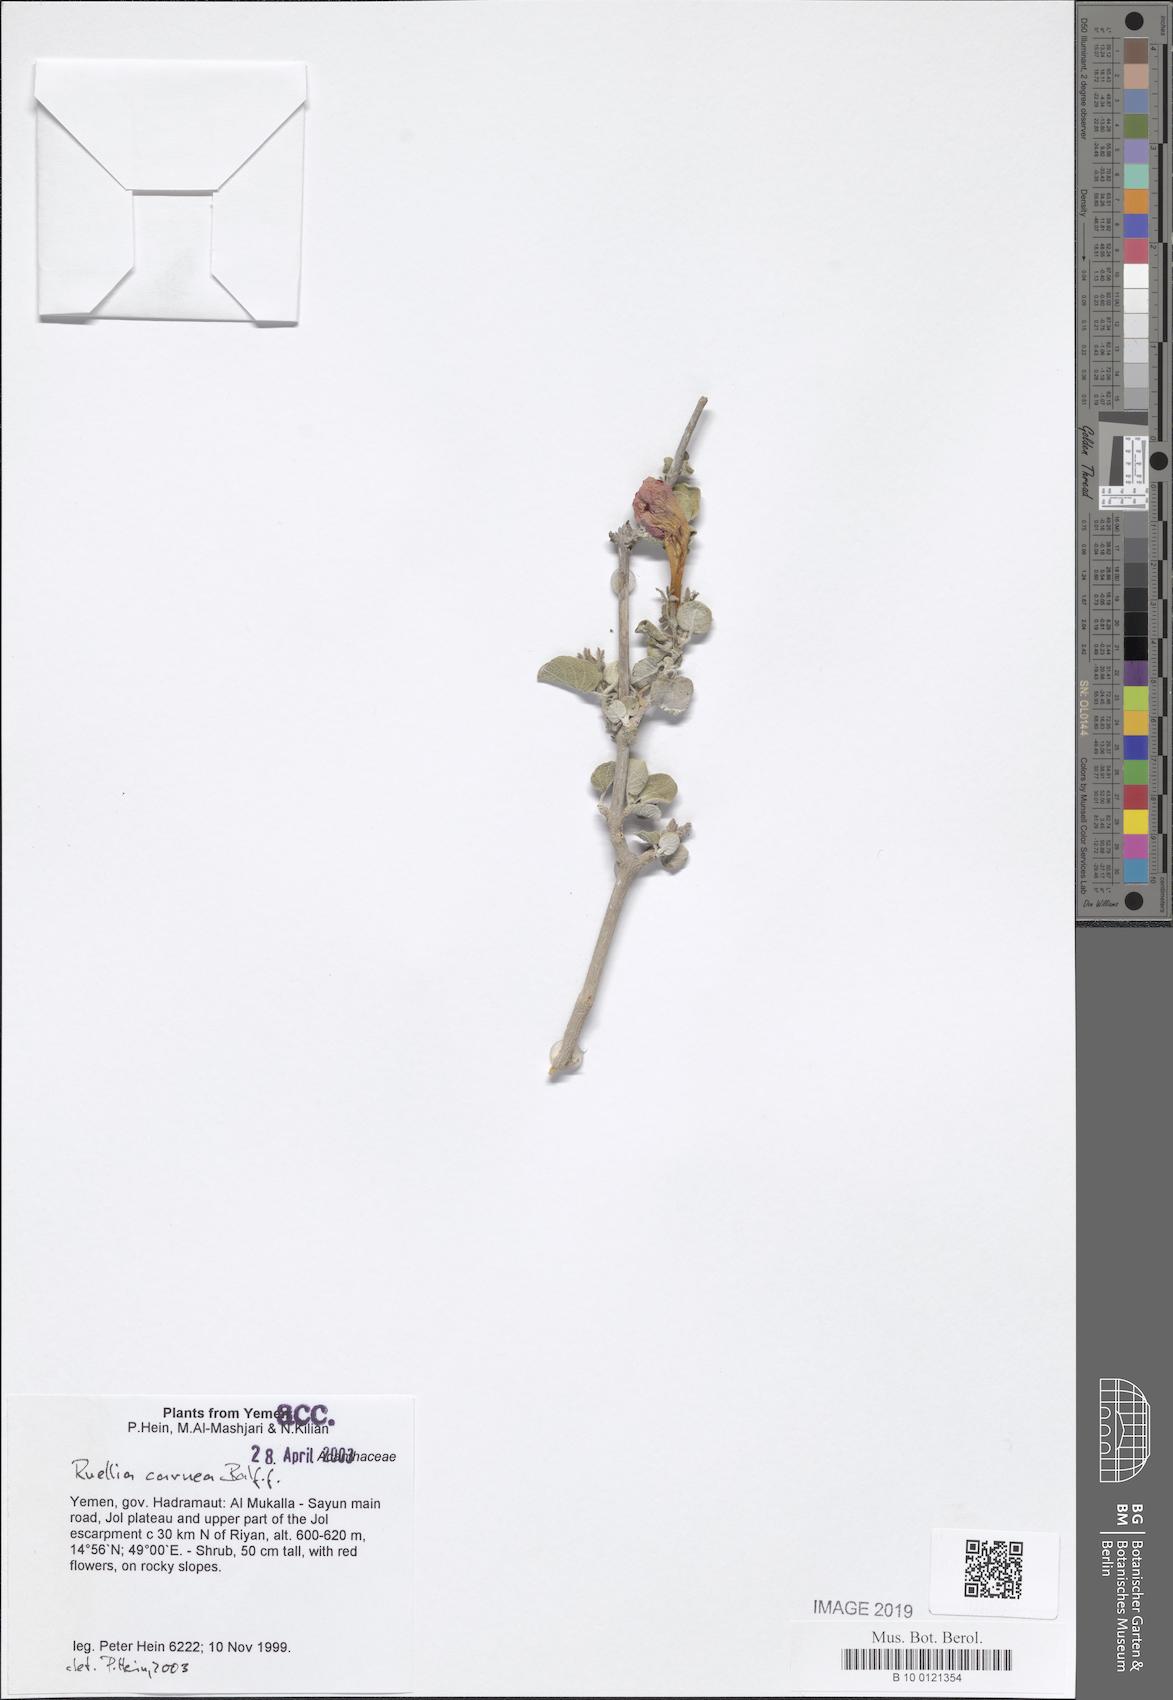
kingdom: Plantae
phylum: Tracheophyta
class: Magnoliopsida
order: Lamiales
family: Acanthaceae
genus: Ruellia
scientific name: Ruellia carnea
